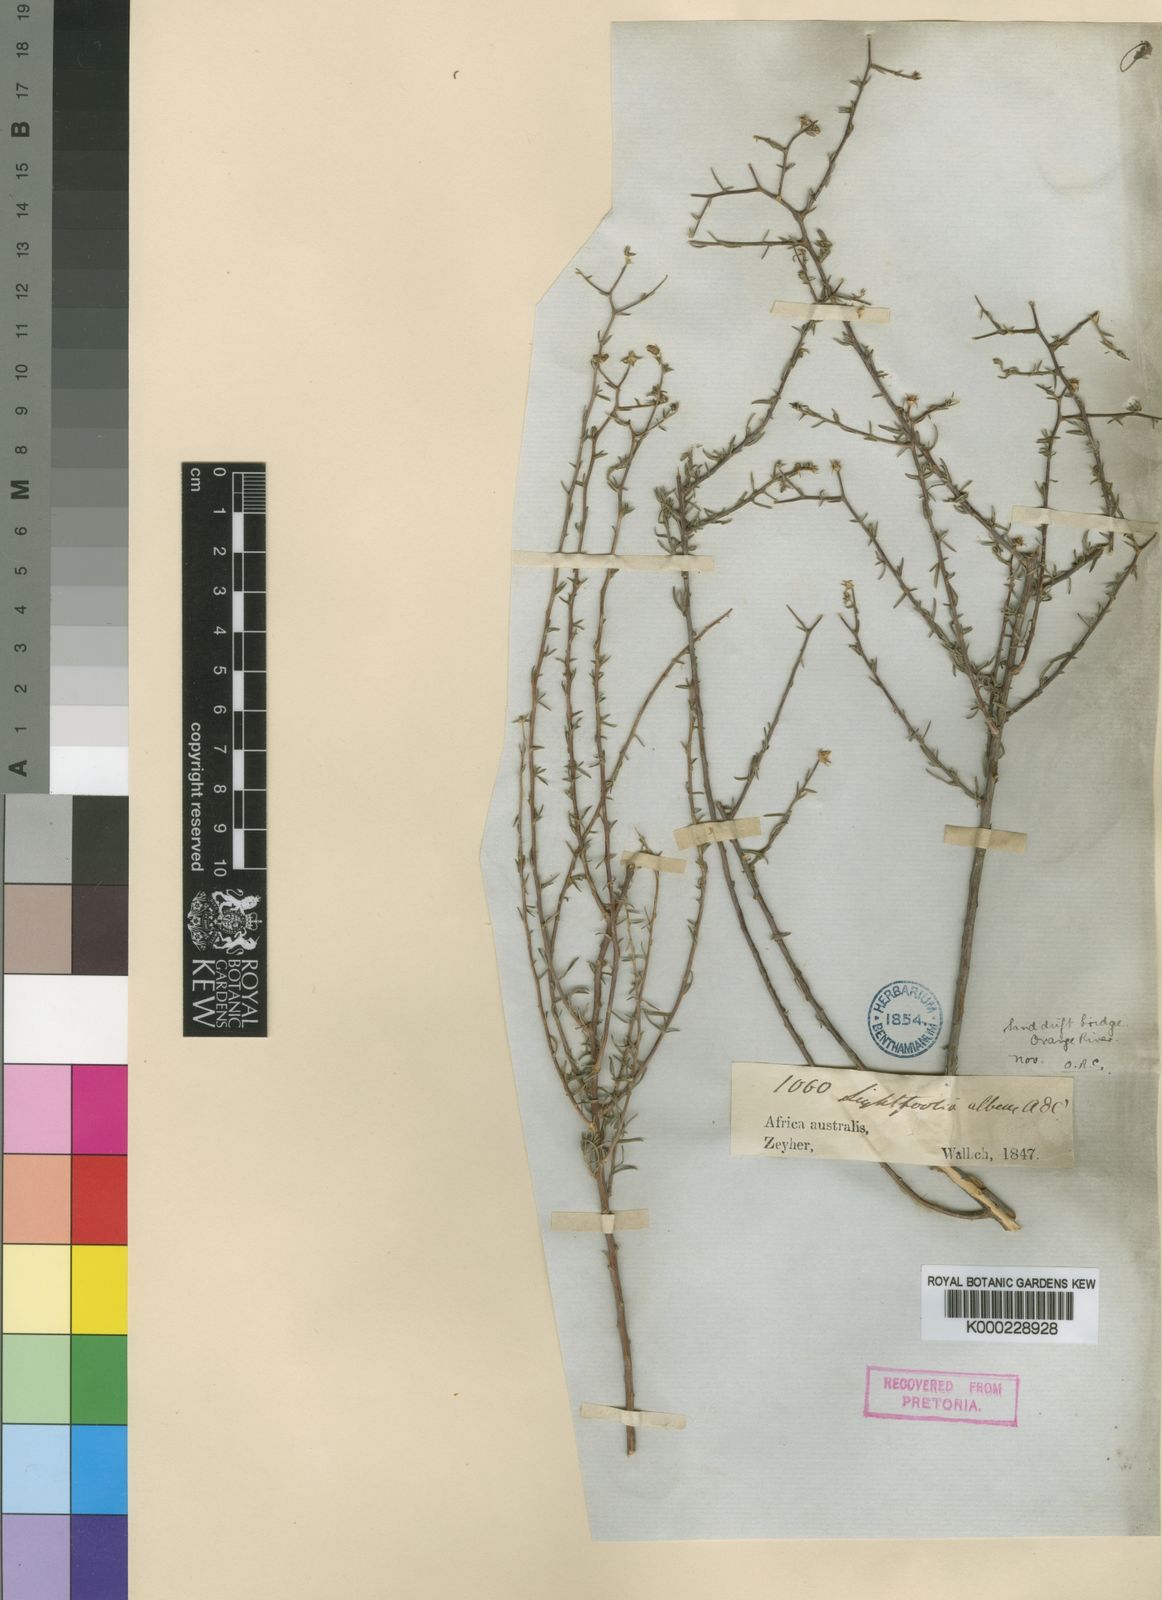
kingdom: Plantae
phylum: Tracheophyta
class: Magnoliopsida
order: Asterales
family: Campanulaceae
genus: Wahlenbergia
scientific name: Wahlenbergia albens
